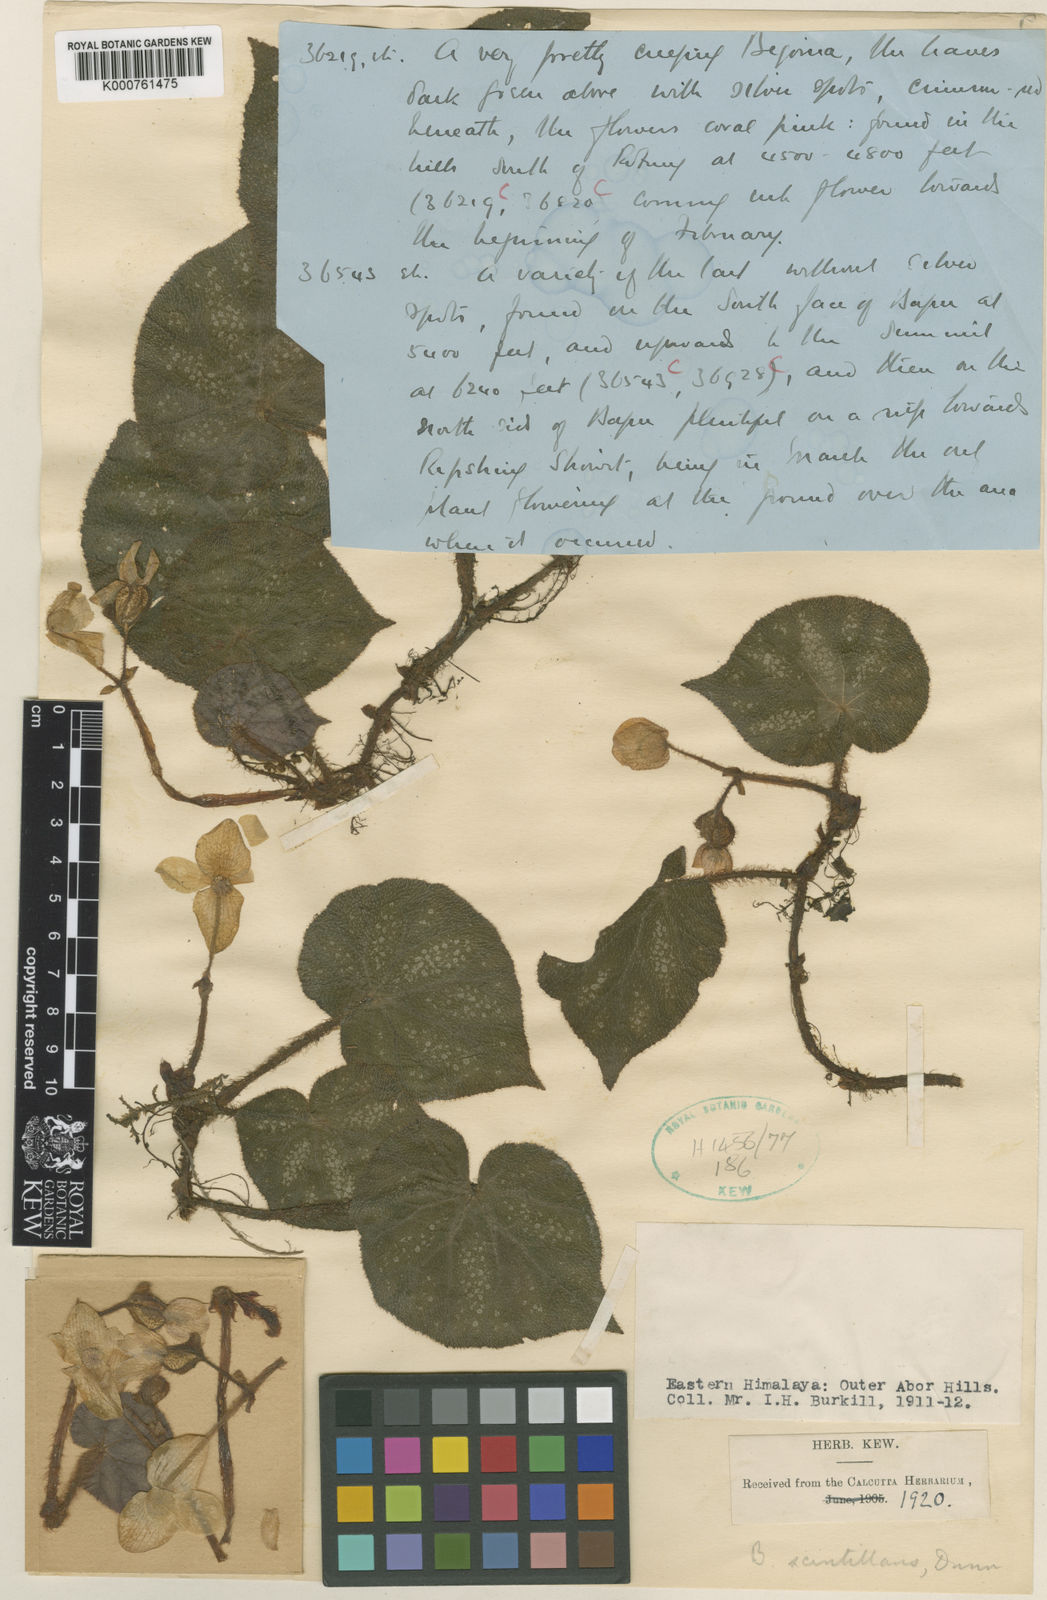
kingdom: Plantae
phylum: Tracheophyta
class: Magnoliopsida
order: Cucurbitales
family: Begoniaceae
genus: Begonia
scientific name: Begonia scintillans
